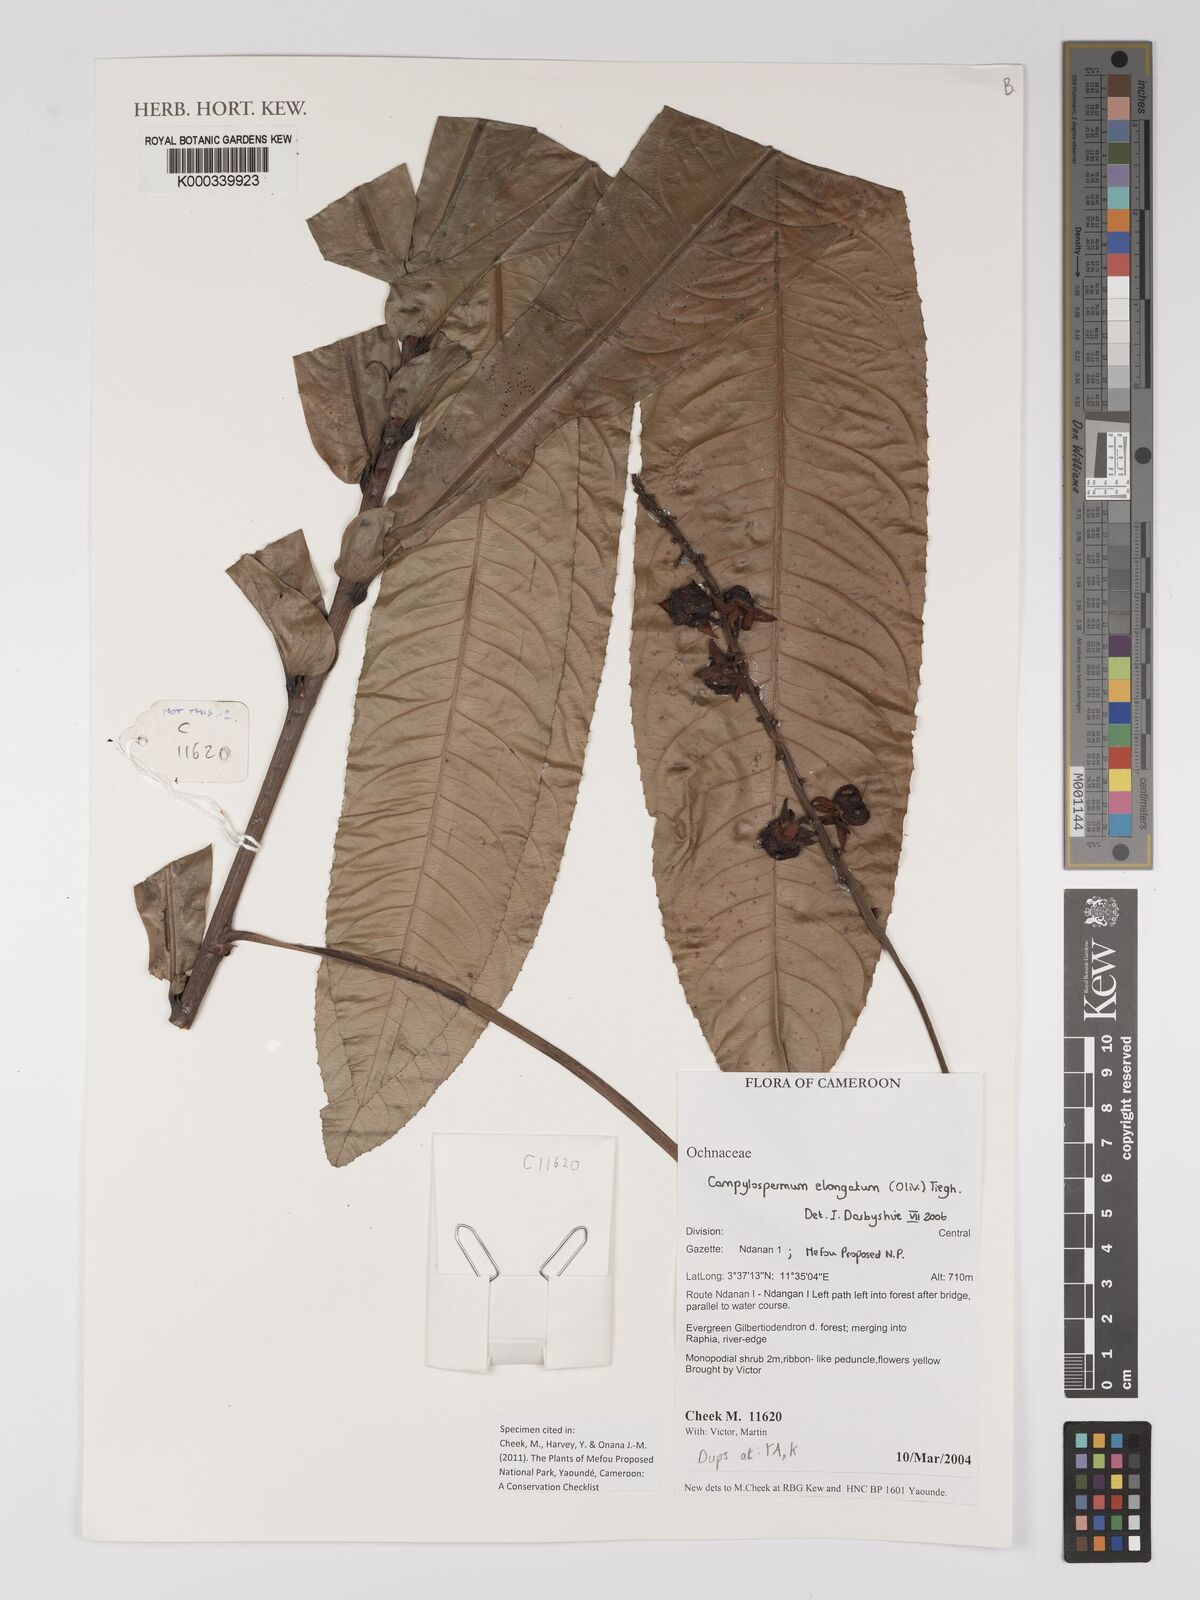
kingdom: Plantae
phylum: Tracheophyta
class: Magnoliopsida
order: Malpighiales
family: Ochnaceae
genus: Gomphia
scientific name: Gomphia elongata
